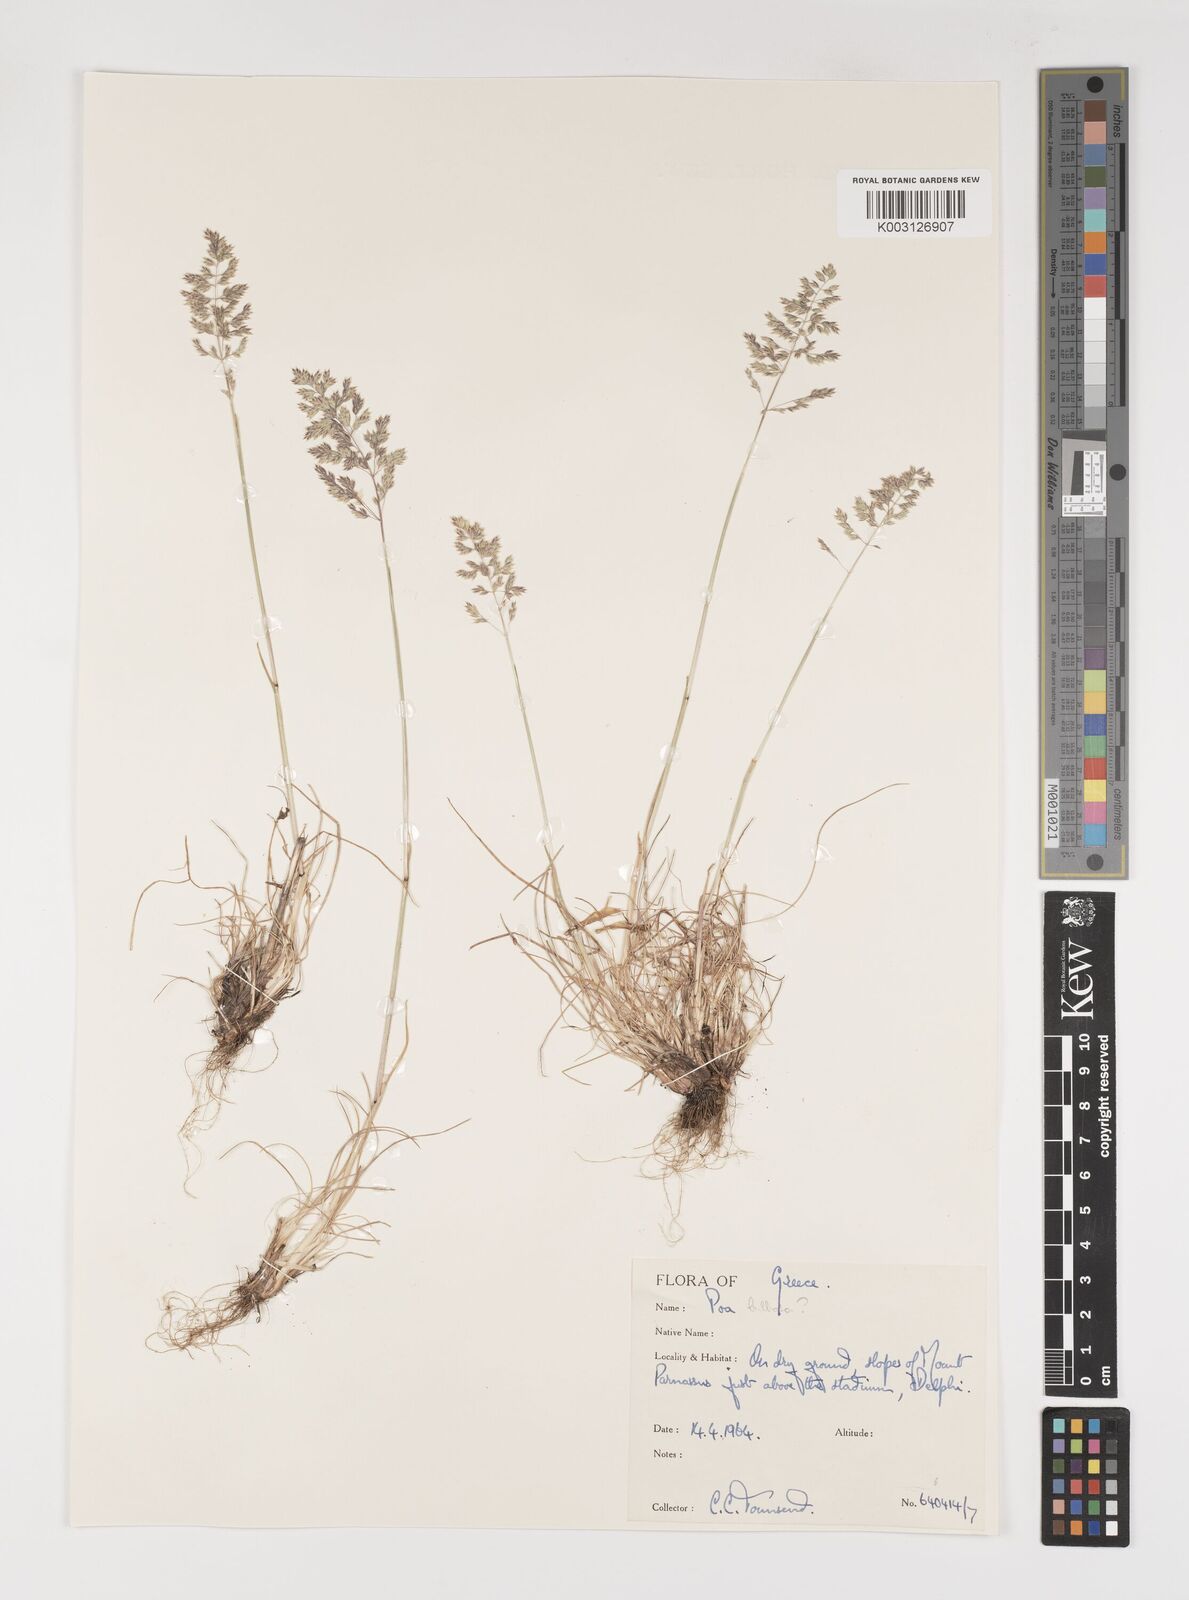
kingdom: Plantae
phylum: Tracheophyta
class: Liliopsida
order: Poales
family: Poaceae
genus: Poa
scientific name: Poa bulbosa
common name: Bulbous bluegrass
